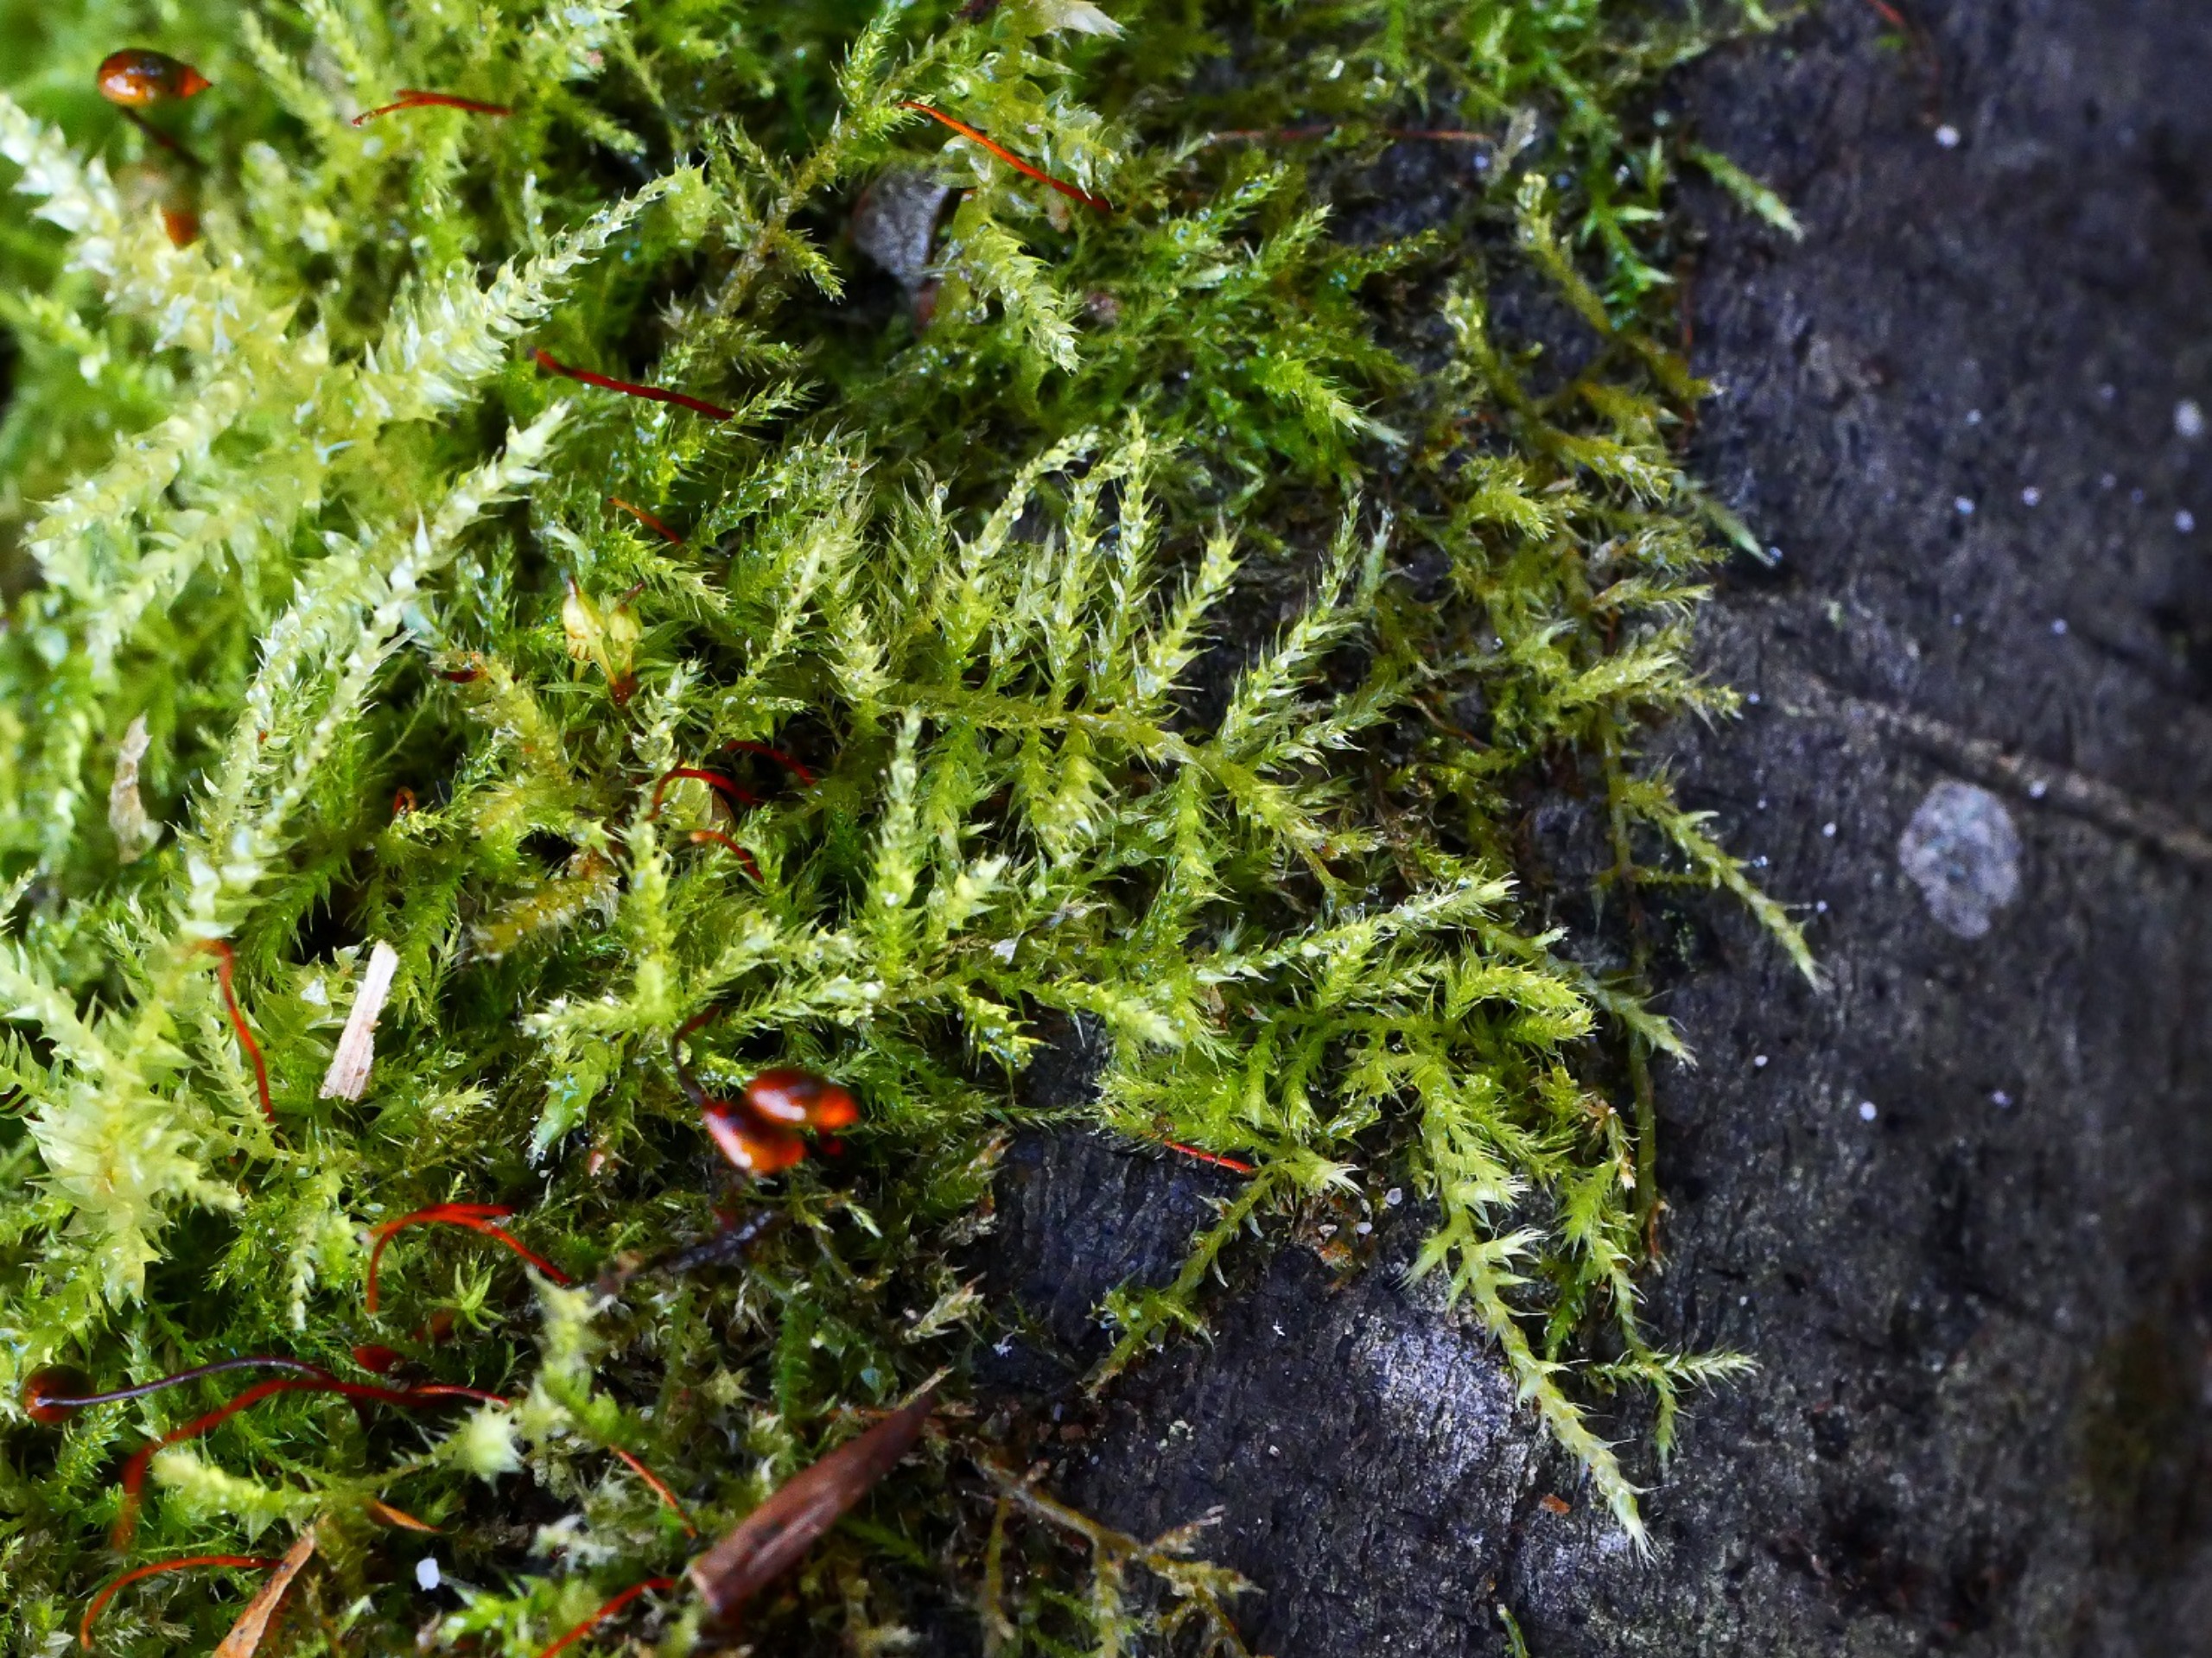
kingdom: Plantae
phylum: Bryophyta
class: Bryopsida
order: Hypnales
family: Brachytheciaceae
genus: Sciuro-hypnum
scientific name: Sciuro-hypnum reflexum
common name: Elle-kortkapsel
